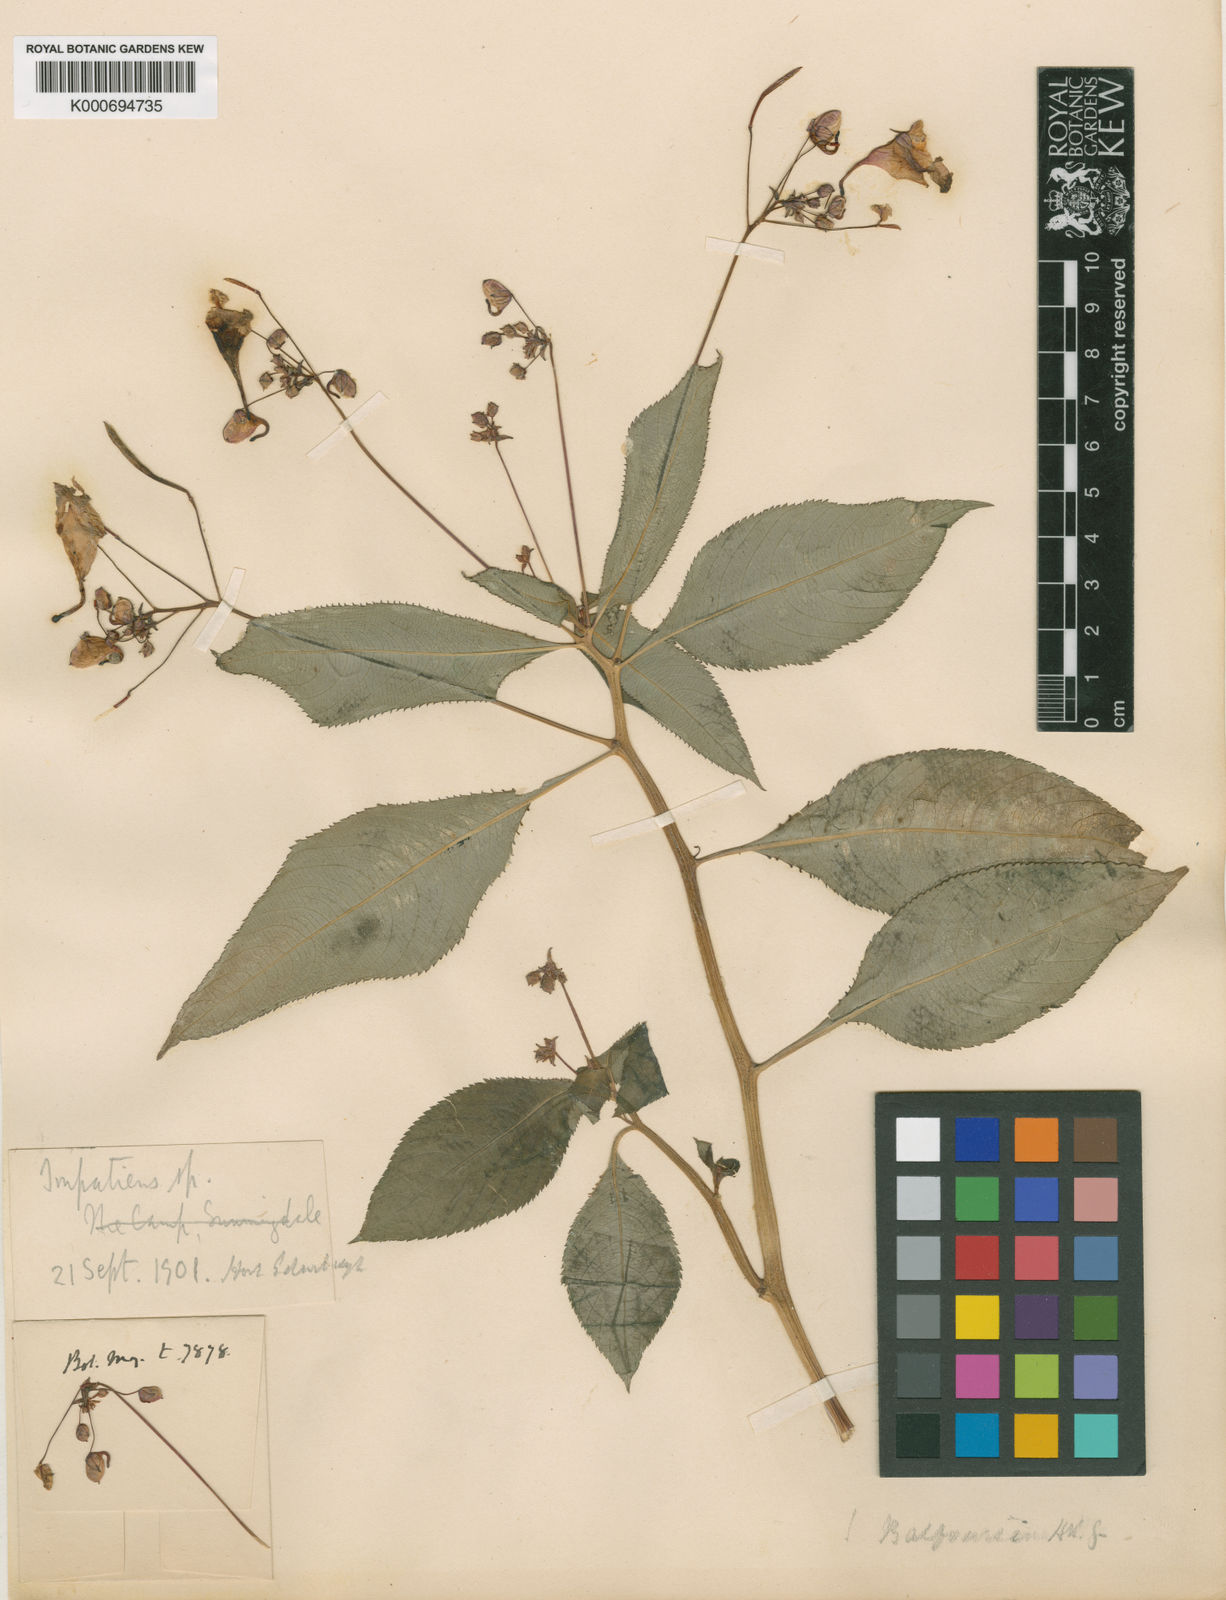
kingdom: Plantae
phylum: Tracheophyta
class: Magnoliopsida
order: Ericales
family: Balsaminaceae
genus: Impatiens
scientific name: Impatiens balfourii
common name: Balfour's touch-me-not
